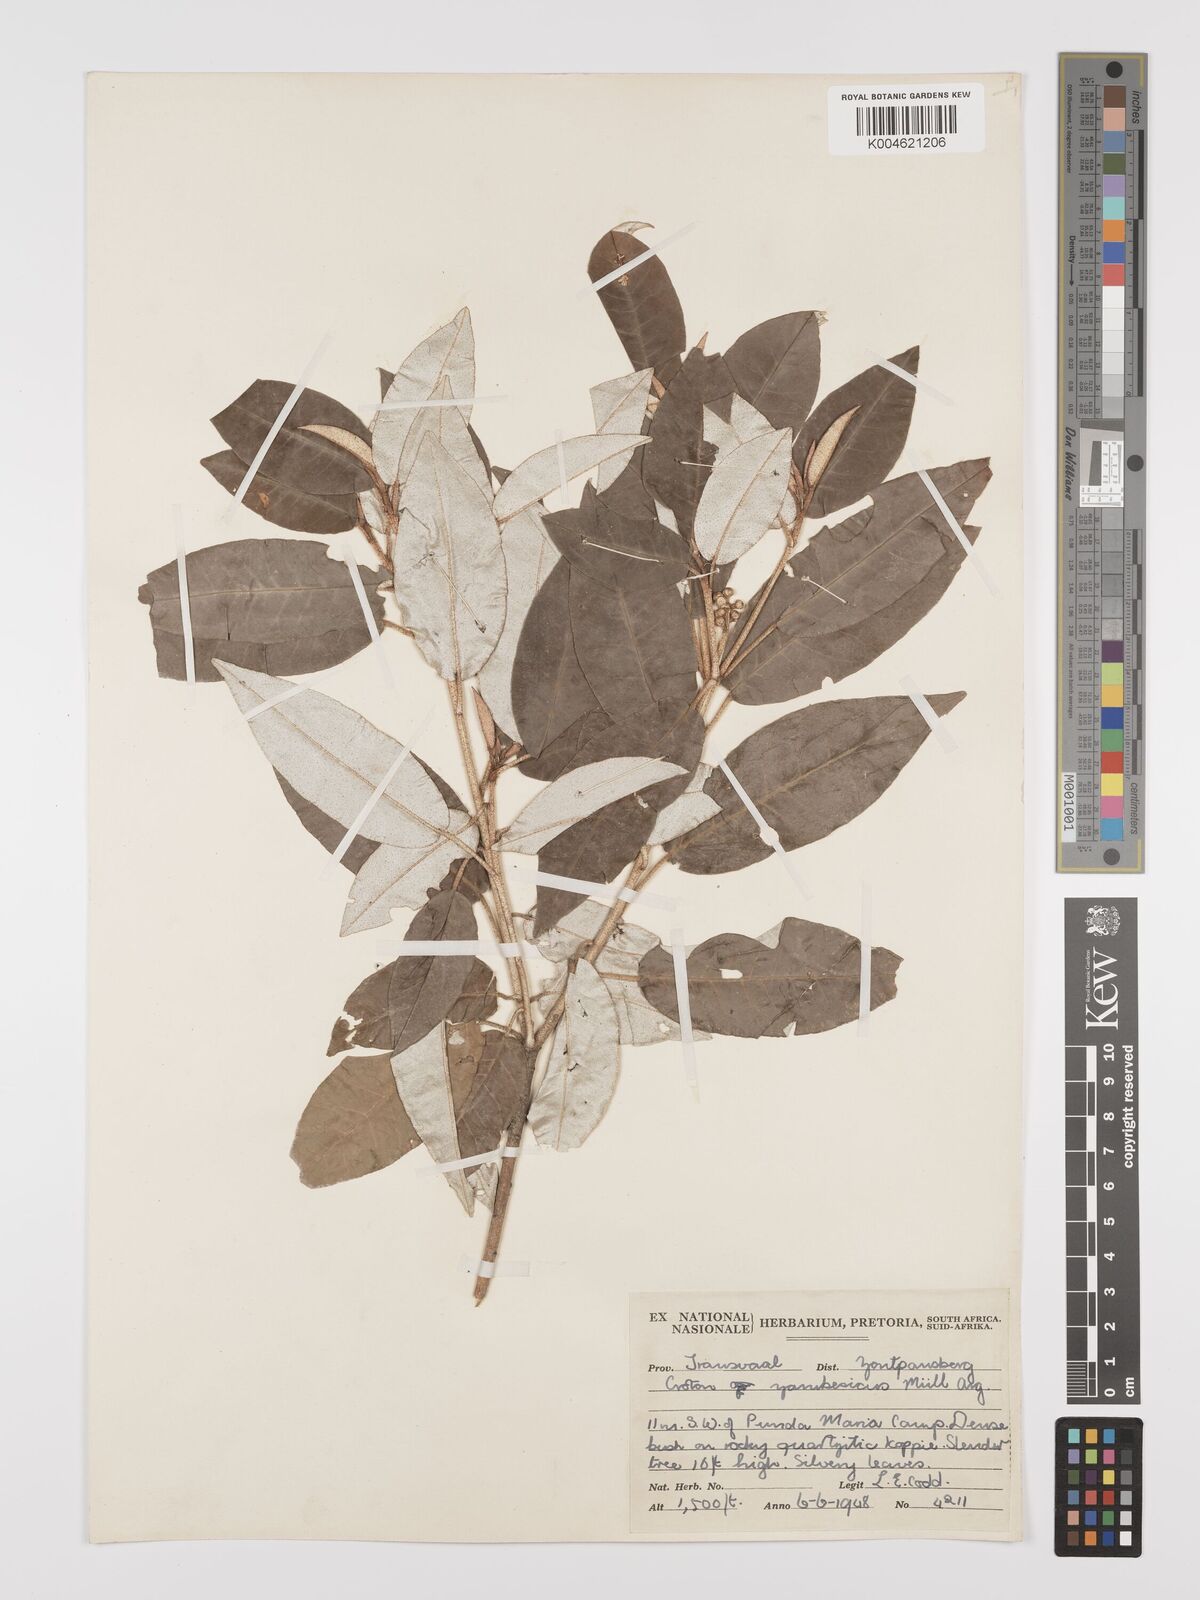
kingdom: Plantae
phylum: Tracheophyta
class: Magnoliopsida
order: Malpighiales
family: Euphorbiaceae
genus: Croton
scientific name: Croton gratissimus
